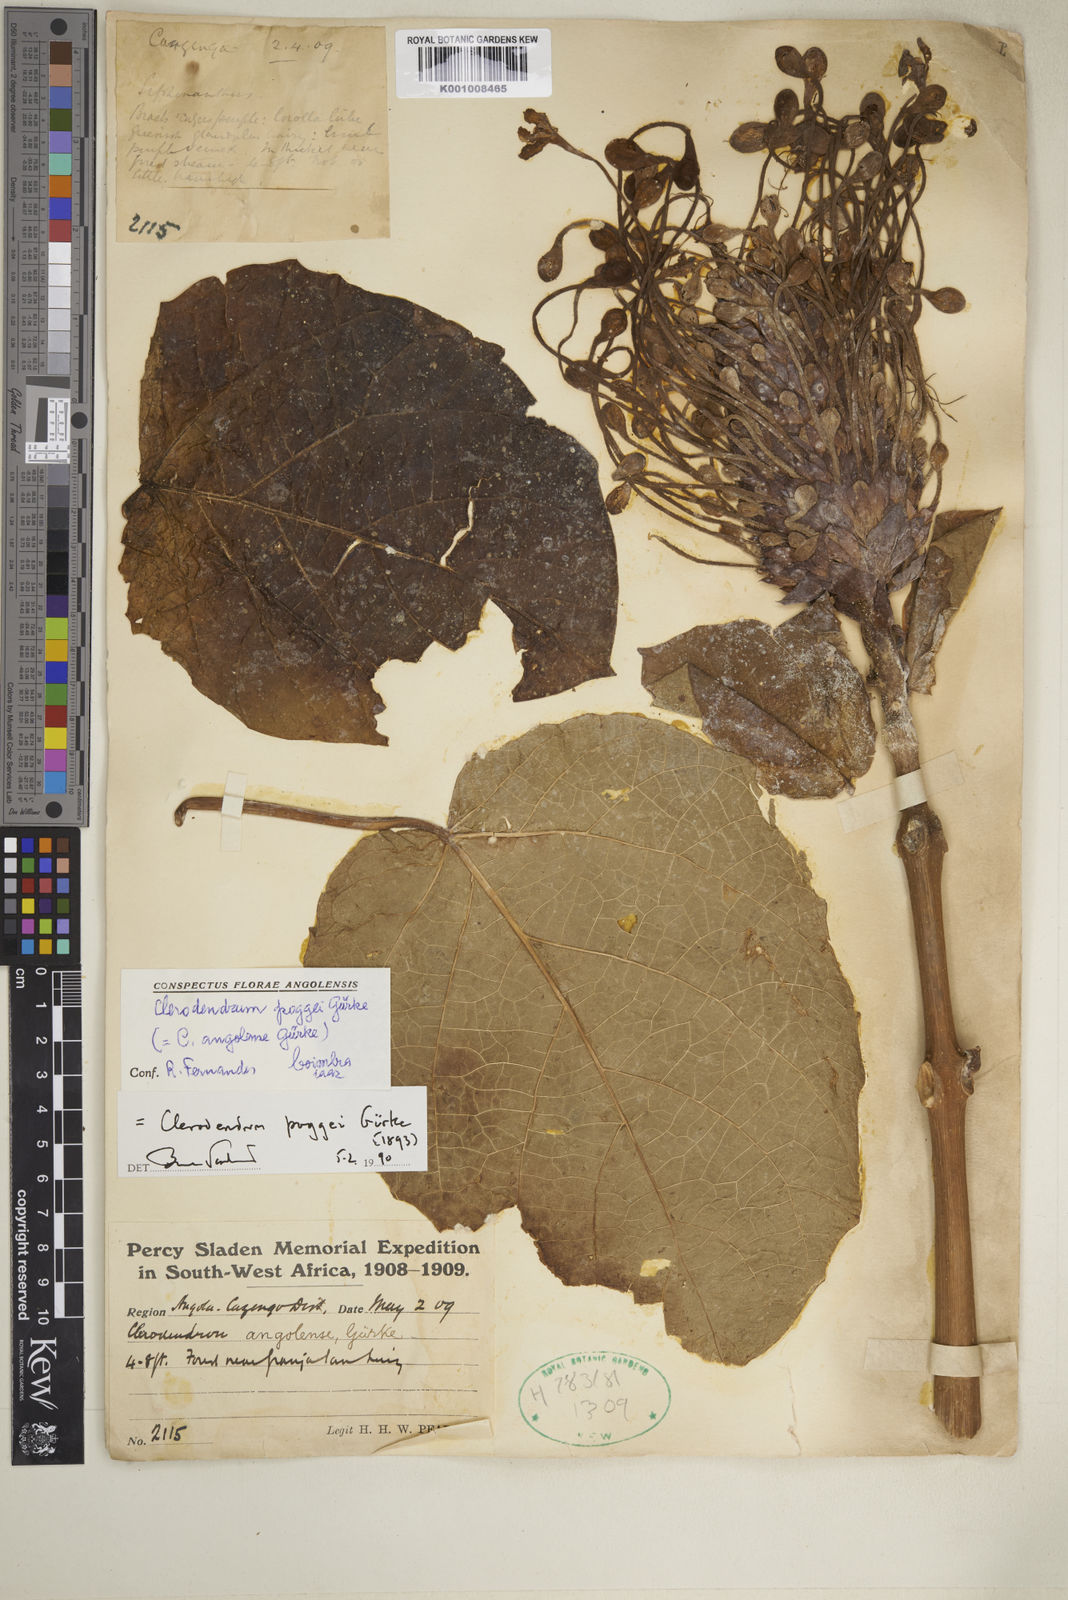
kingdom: Plantae
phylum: Tracheophyta
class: Magnoliopsida
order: Lamiales
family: Lamiaceae
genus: Clerodendrum
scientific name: Clerodendrum
